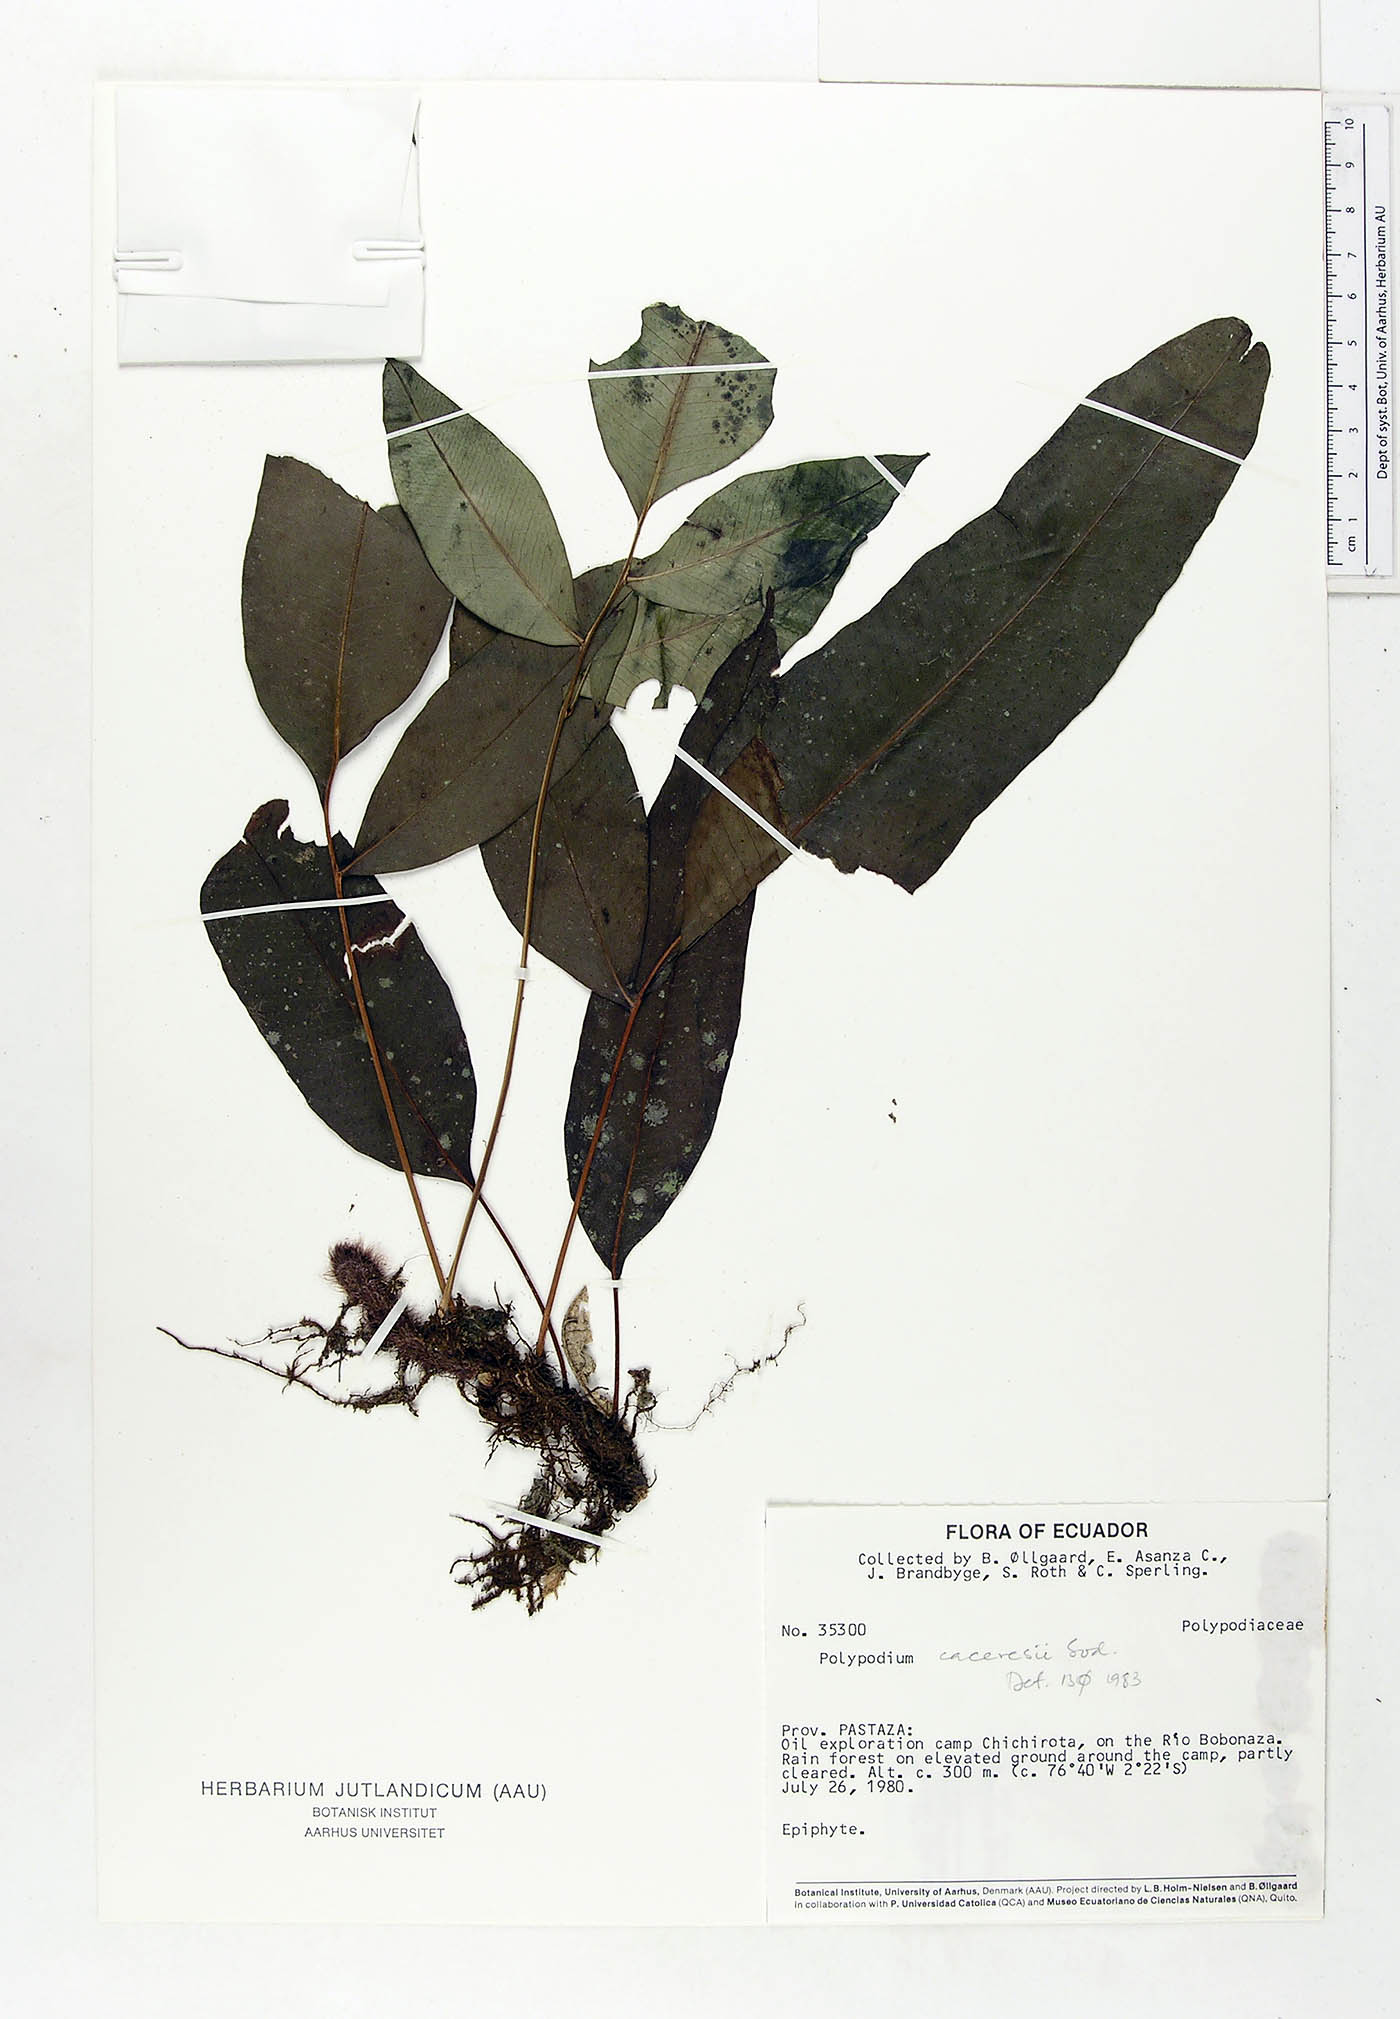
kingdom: Plantae
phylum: Tracheophyta
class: Polypodiopsida
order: Polypodiales
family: Polypodiaceae
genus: Serpocaulon
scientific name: Serpocaulon articulatum
